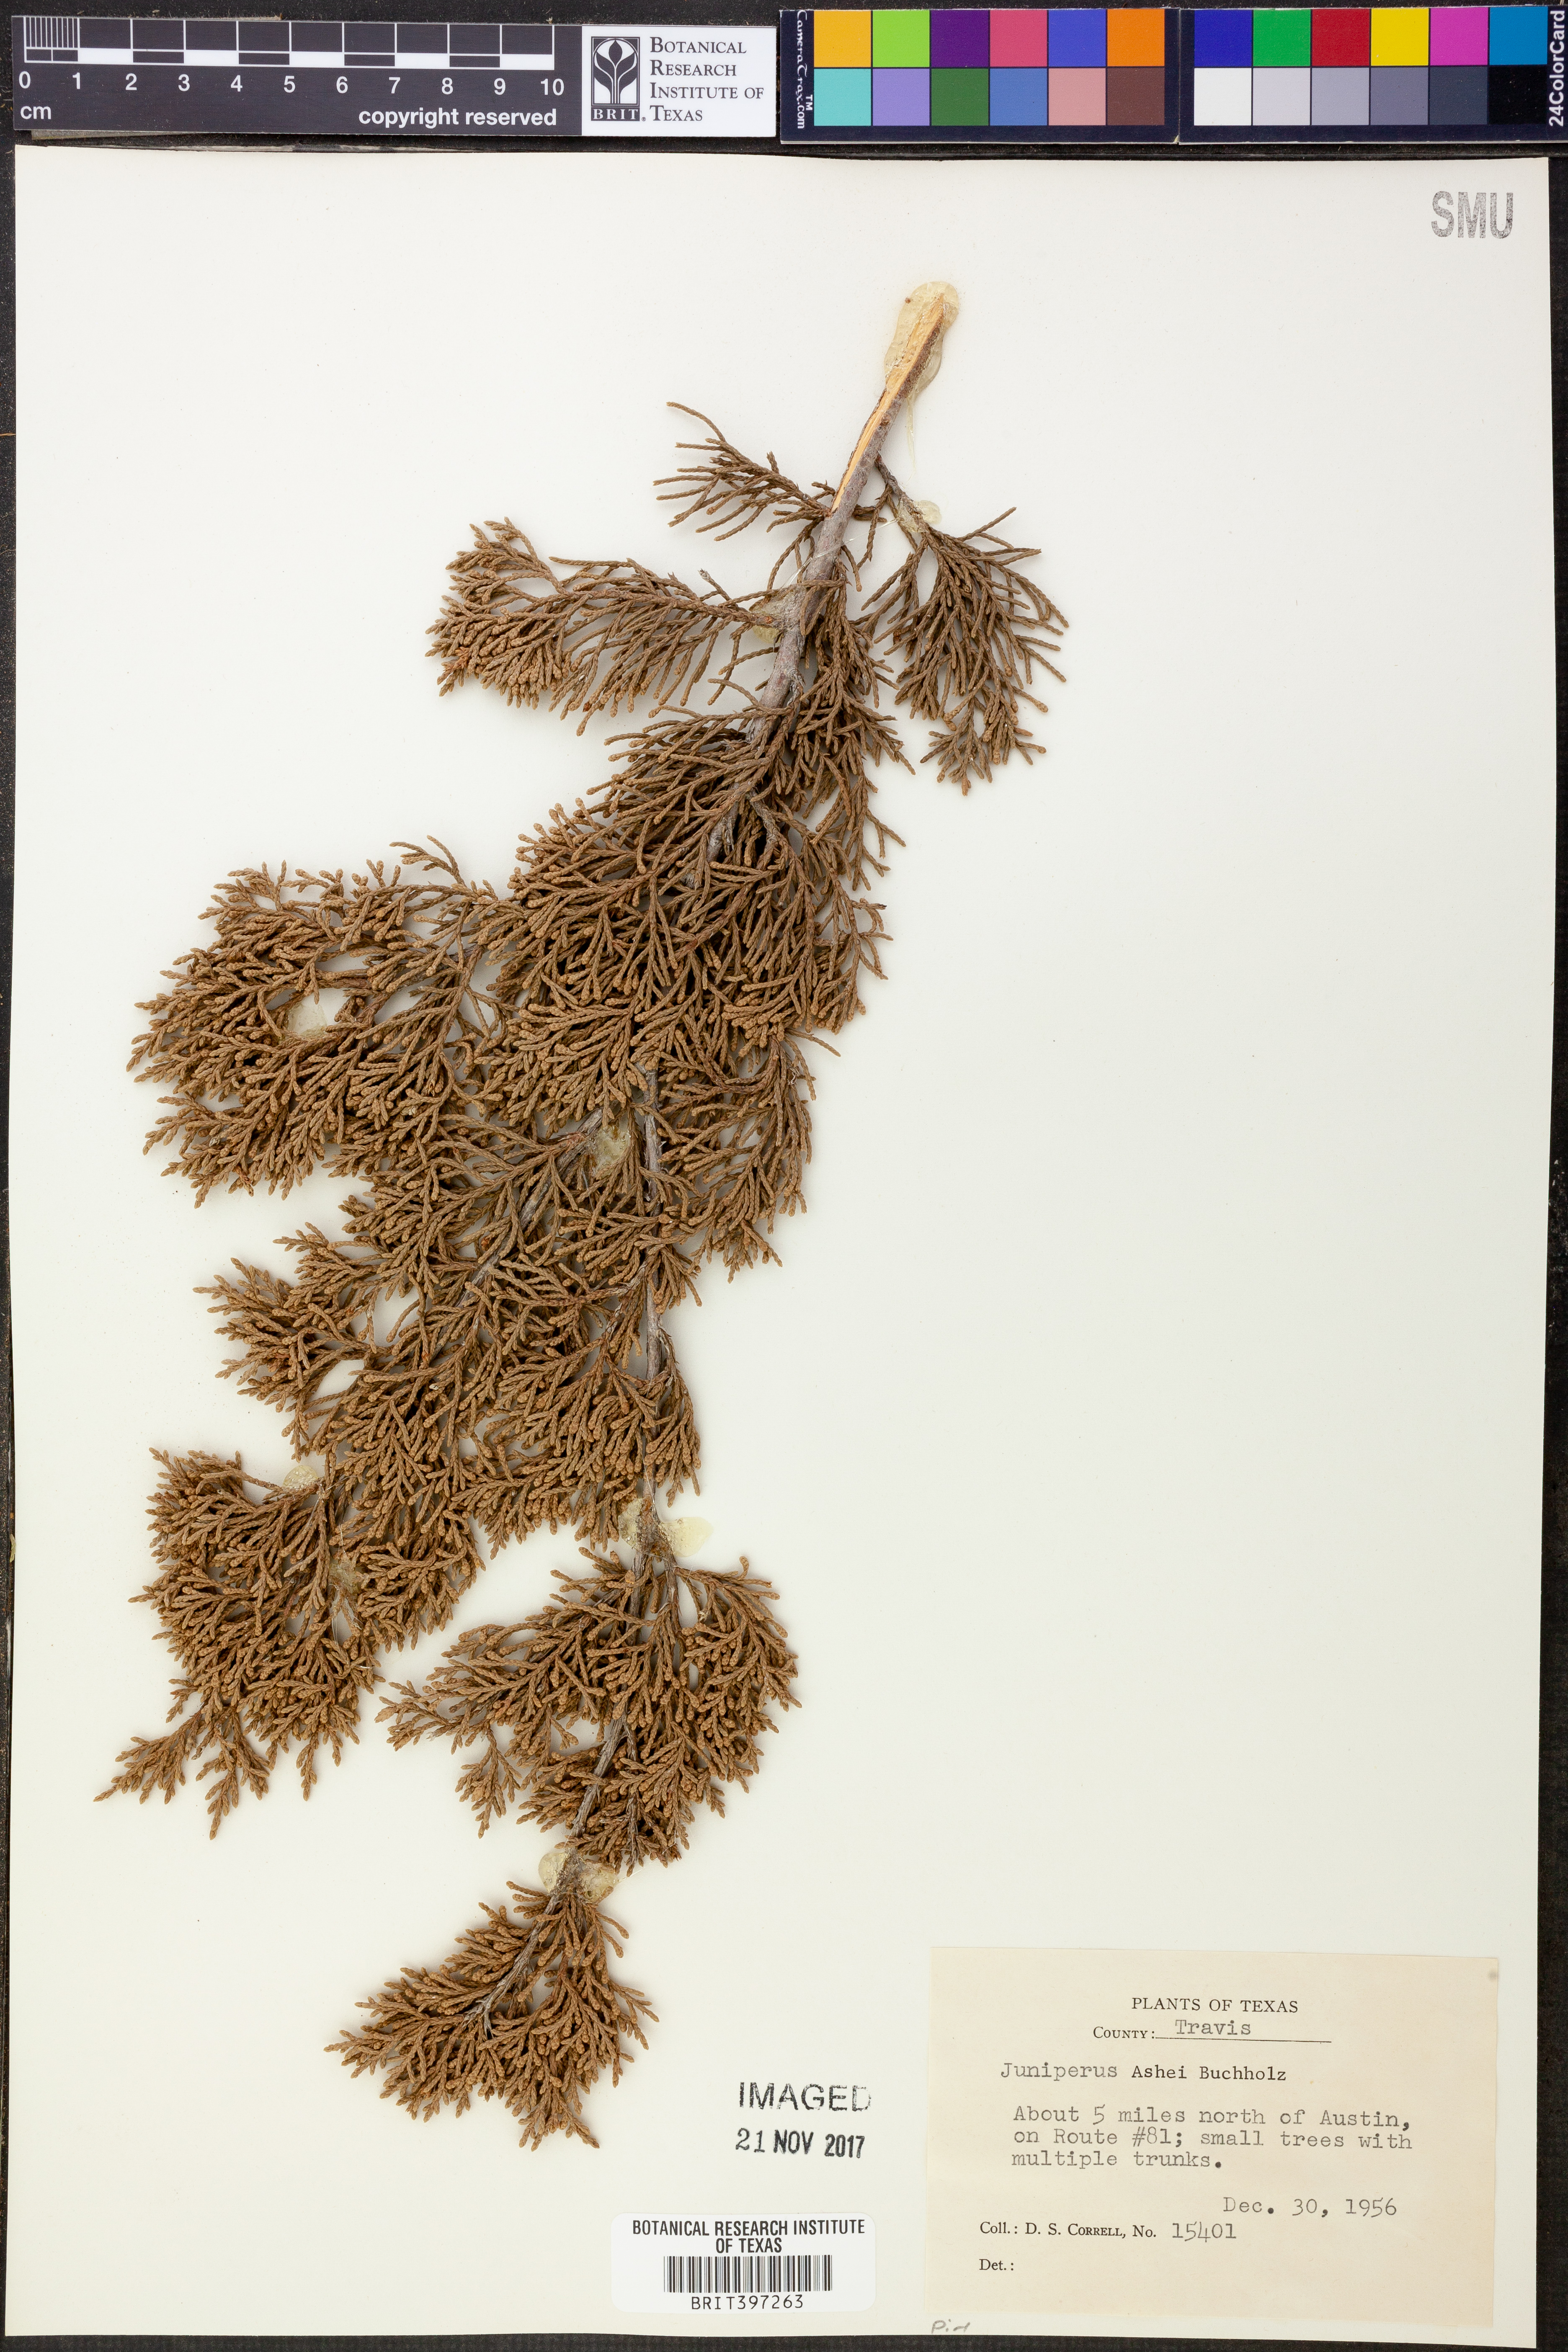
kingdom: Plantae
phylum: Tracheophyta
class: Pinopsida
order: Pinales
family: Cupressaceae
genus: Juniperus
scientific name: Juniperus ashei
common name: Mexican juniper
